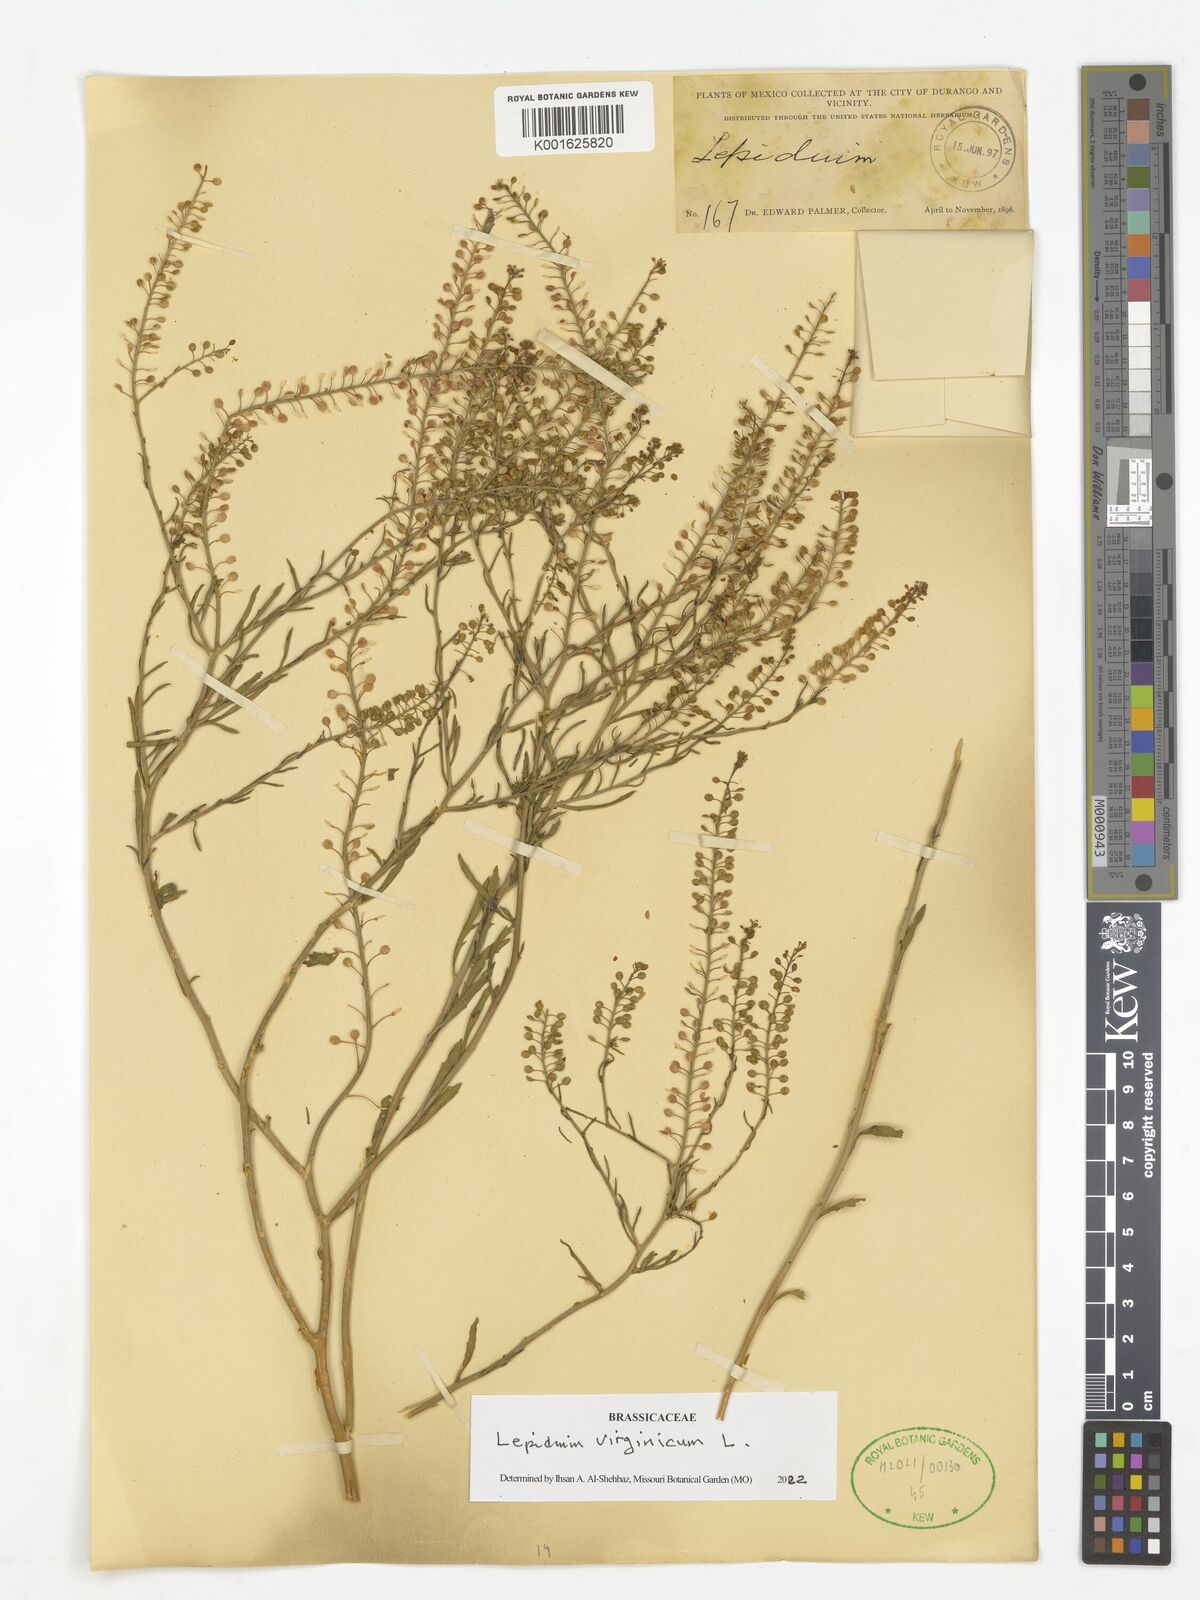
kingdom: Plantae
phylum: Tracheophyta
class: Magnoliopsida
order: Brassicales
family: Brassicaceae
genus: Lepidium
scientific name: Lepidium virginicum
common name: Least pepperwort
